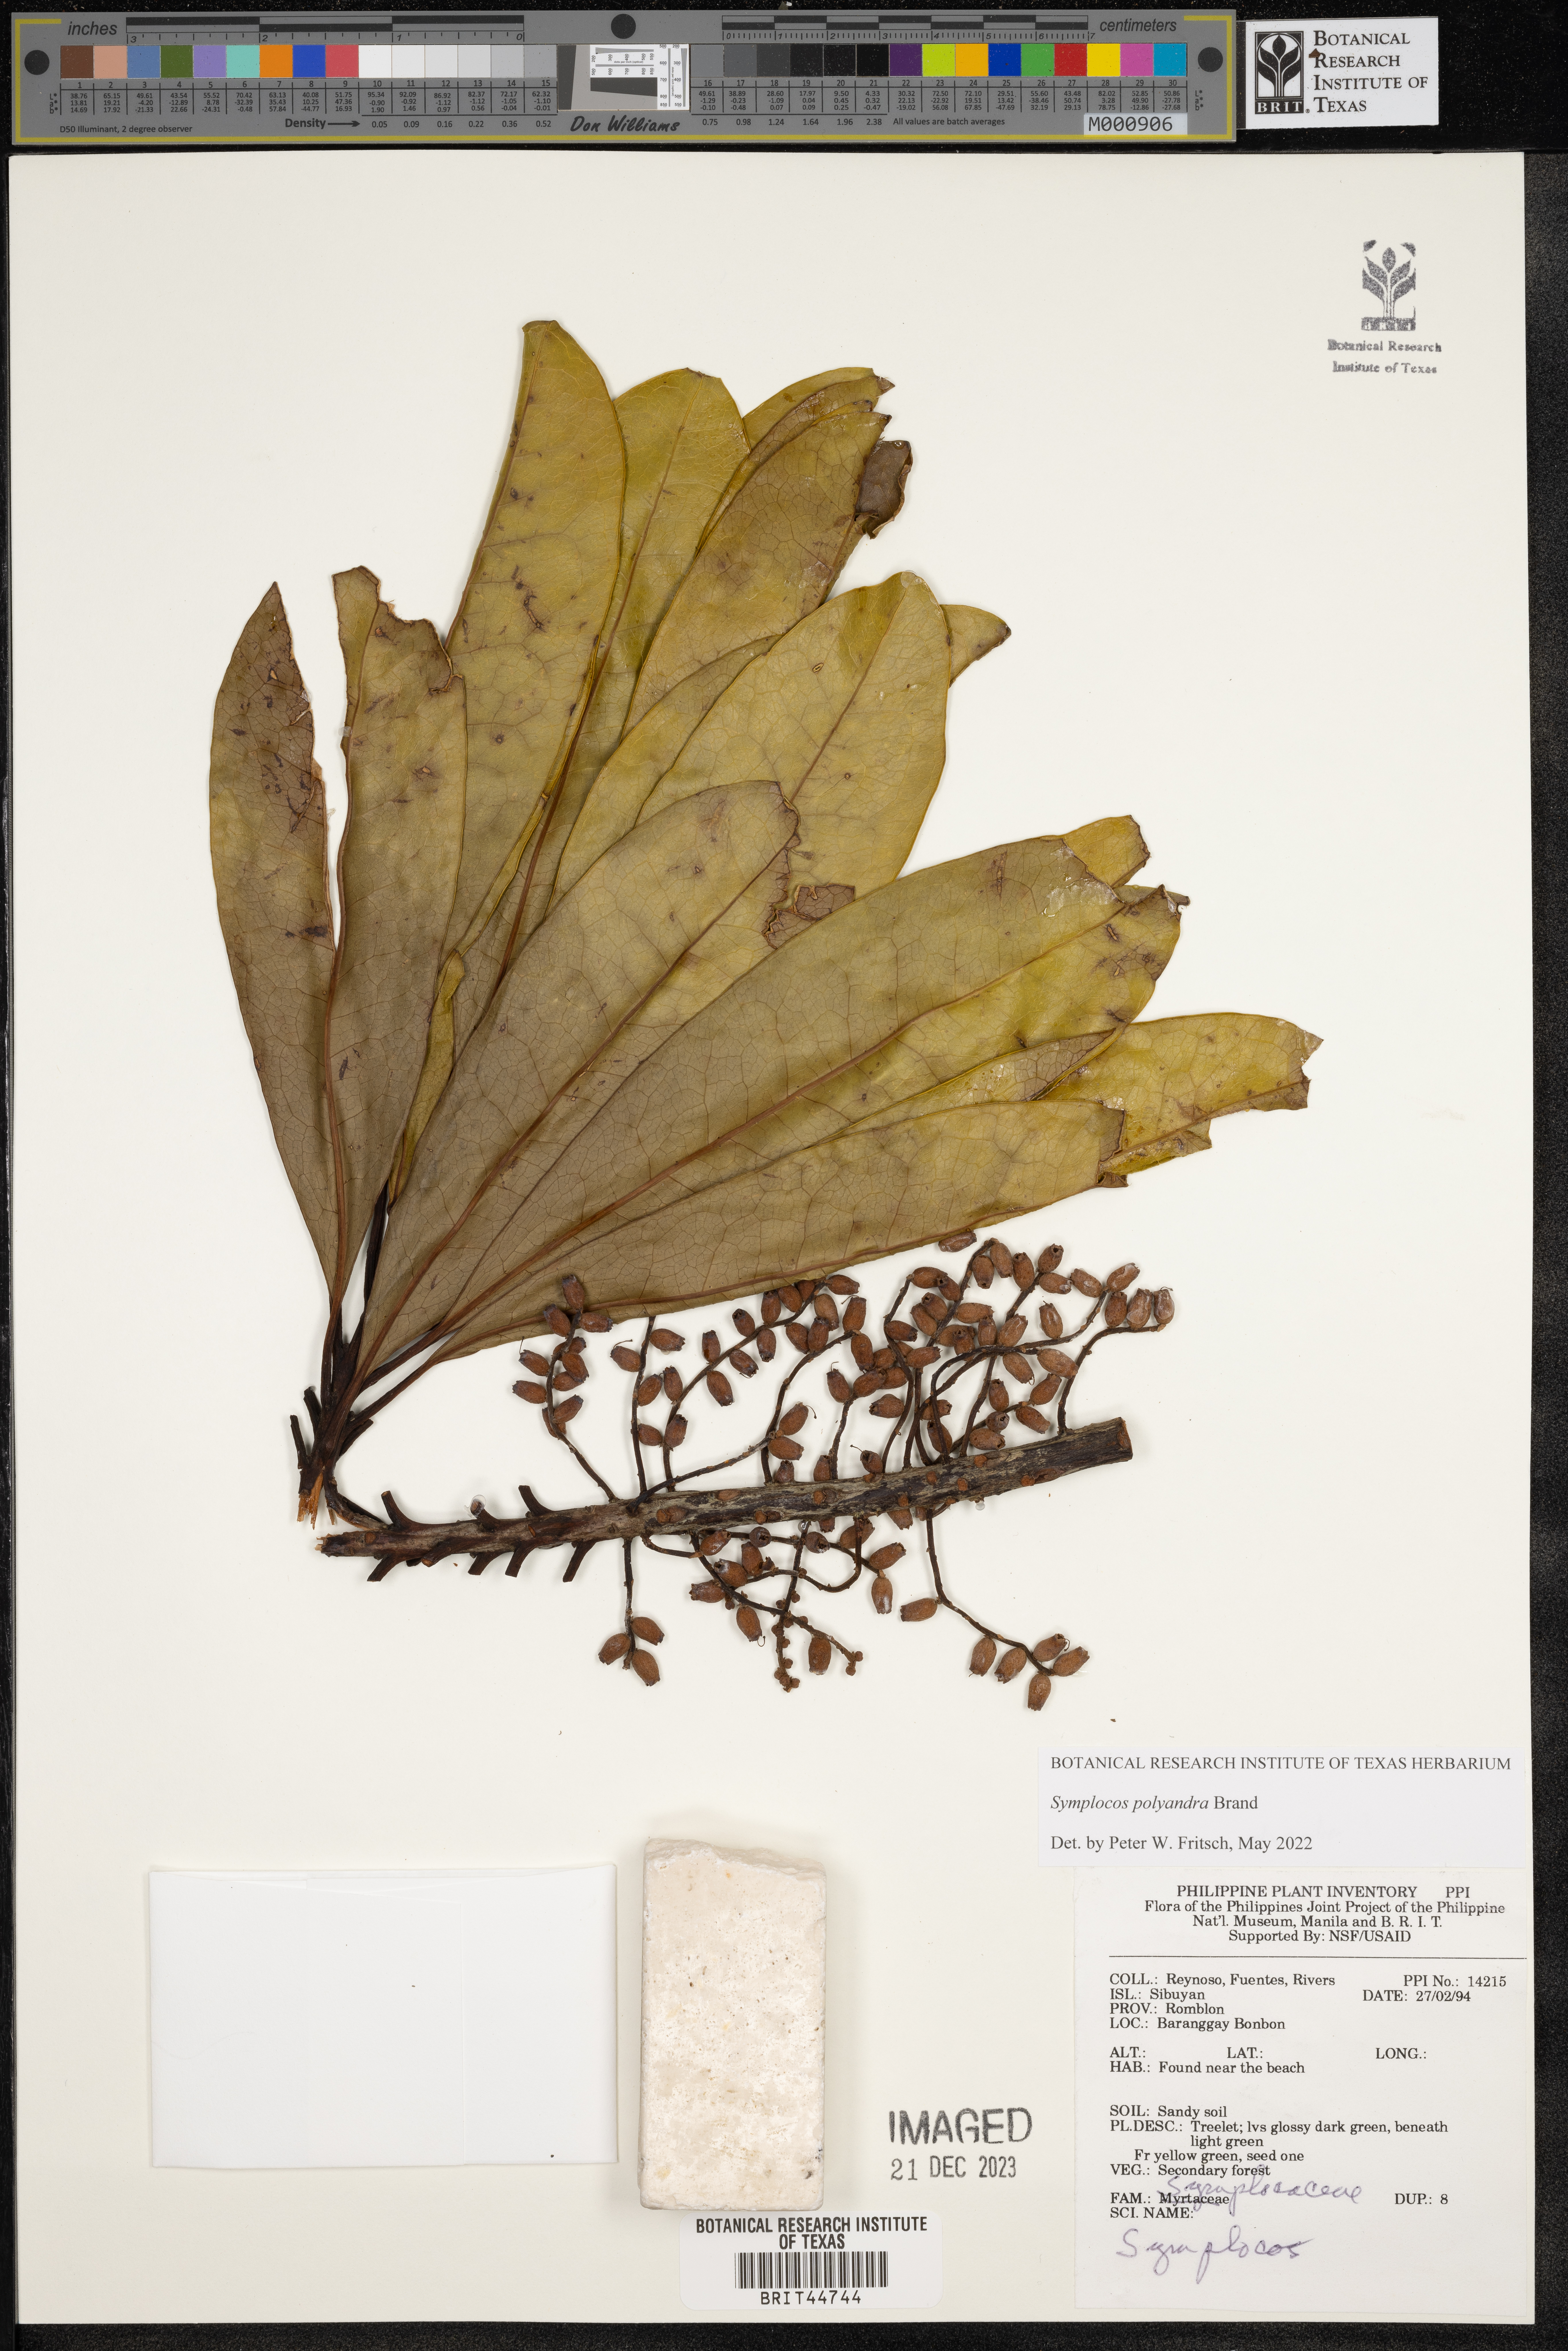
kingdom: Plantae
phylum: Tracheophyta
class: Magnoliopsida
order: Ericales
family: Symplocaceae
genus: Symplocos
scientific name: Symplocos
